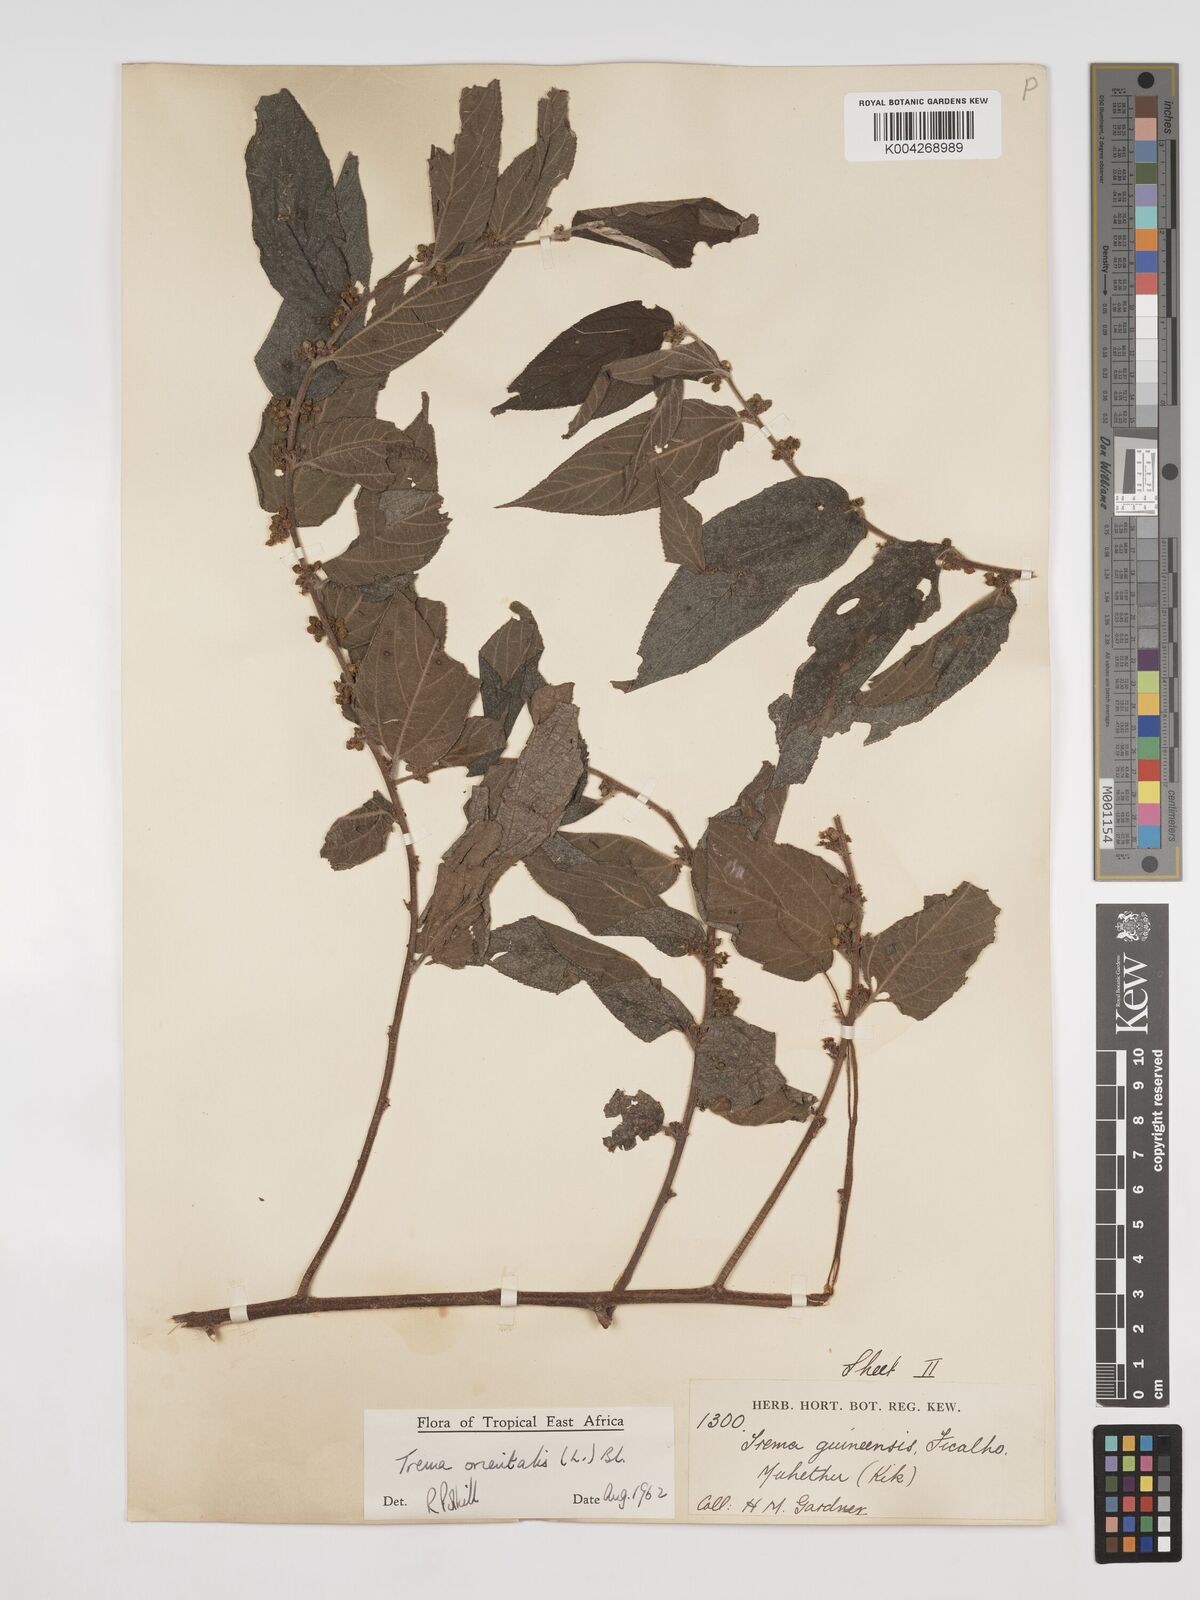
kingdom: Plantae
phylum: Tracheophyta
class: Magnoliopsida
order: Rosales
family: Cannabaceae
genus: Trema
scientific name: Trema orientale
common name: Indian charcoal tree
